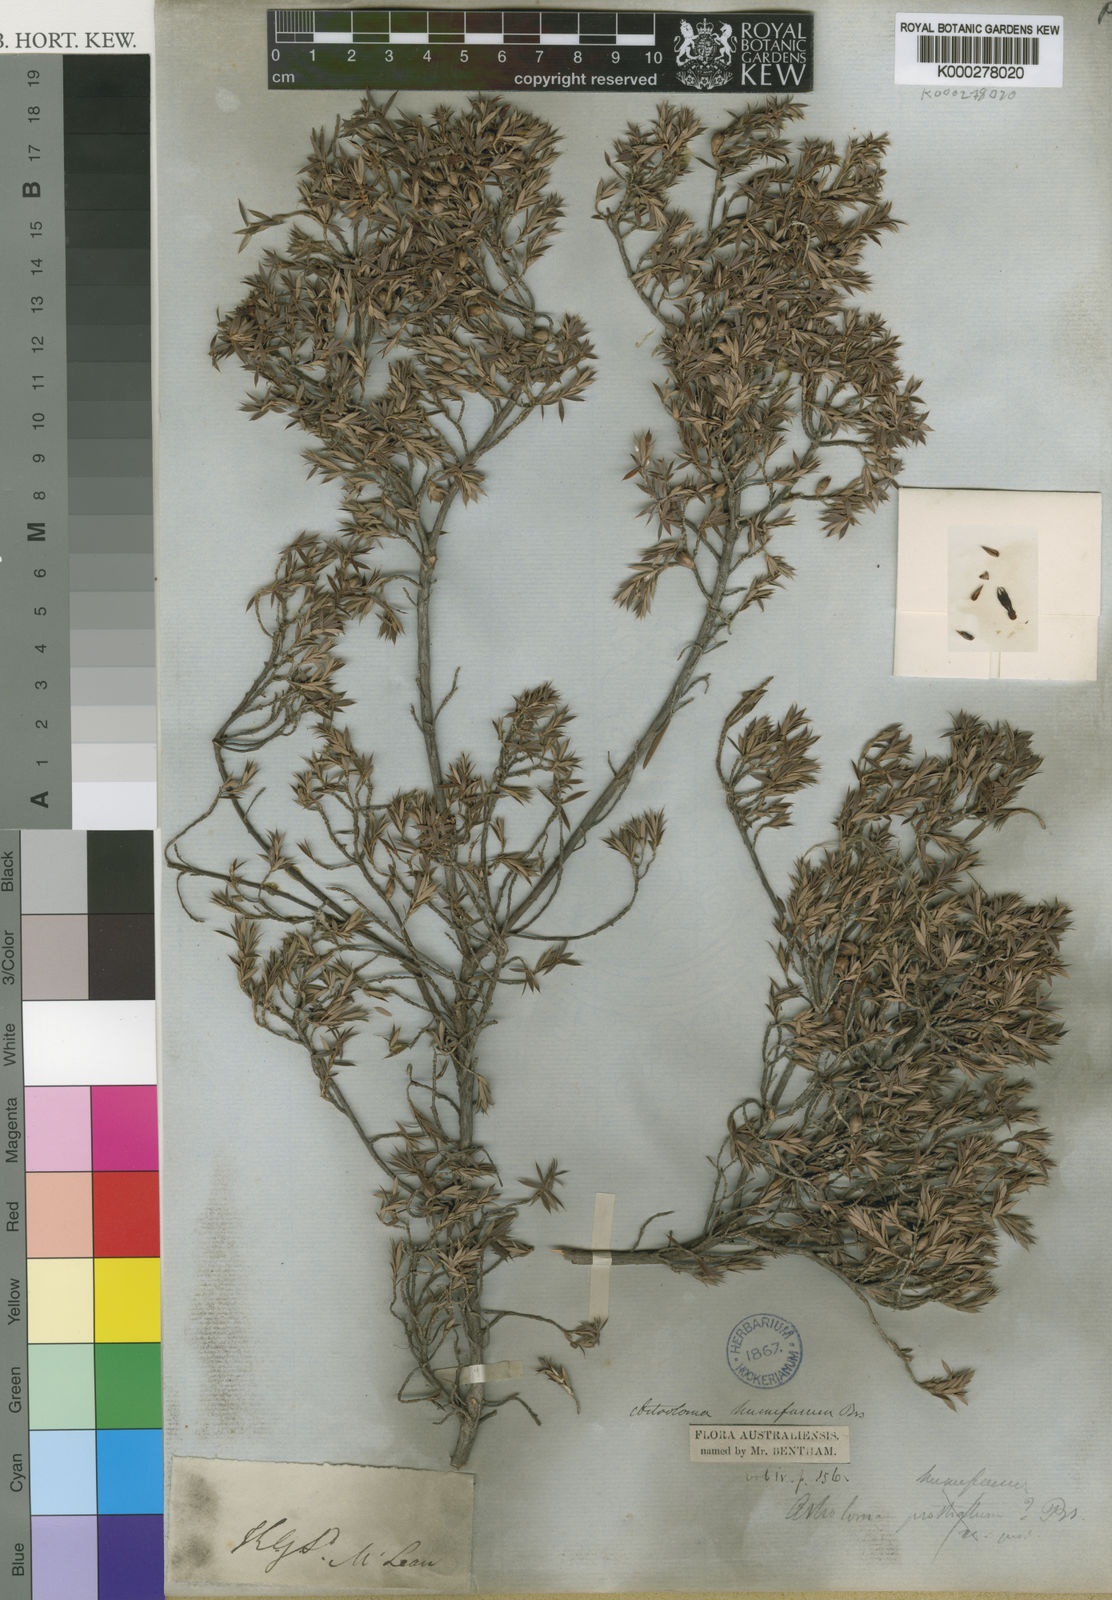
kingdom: Plantae
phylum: Tracheophyta
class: Magnoliopsida
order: Ericales
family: Ericaceae
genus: Styphelia
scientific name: Styphelia humifusa
